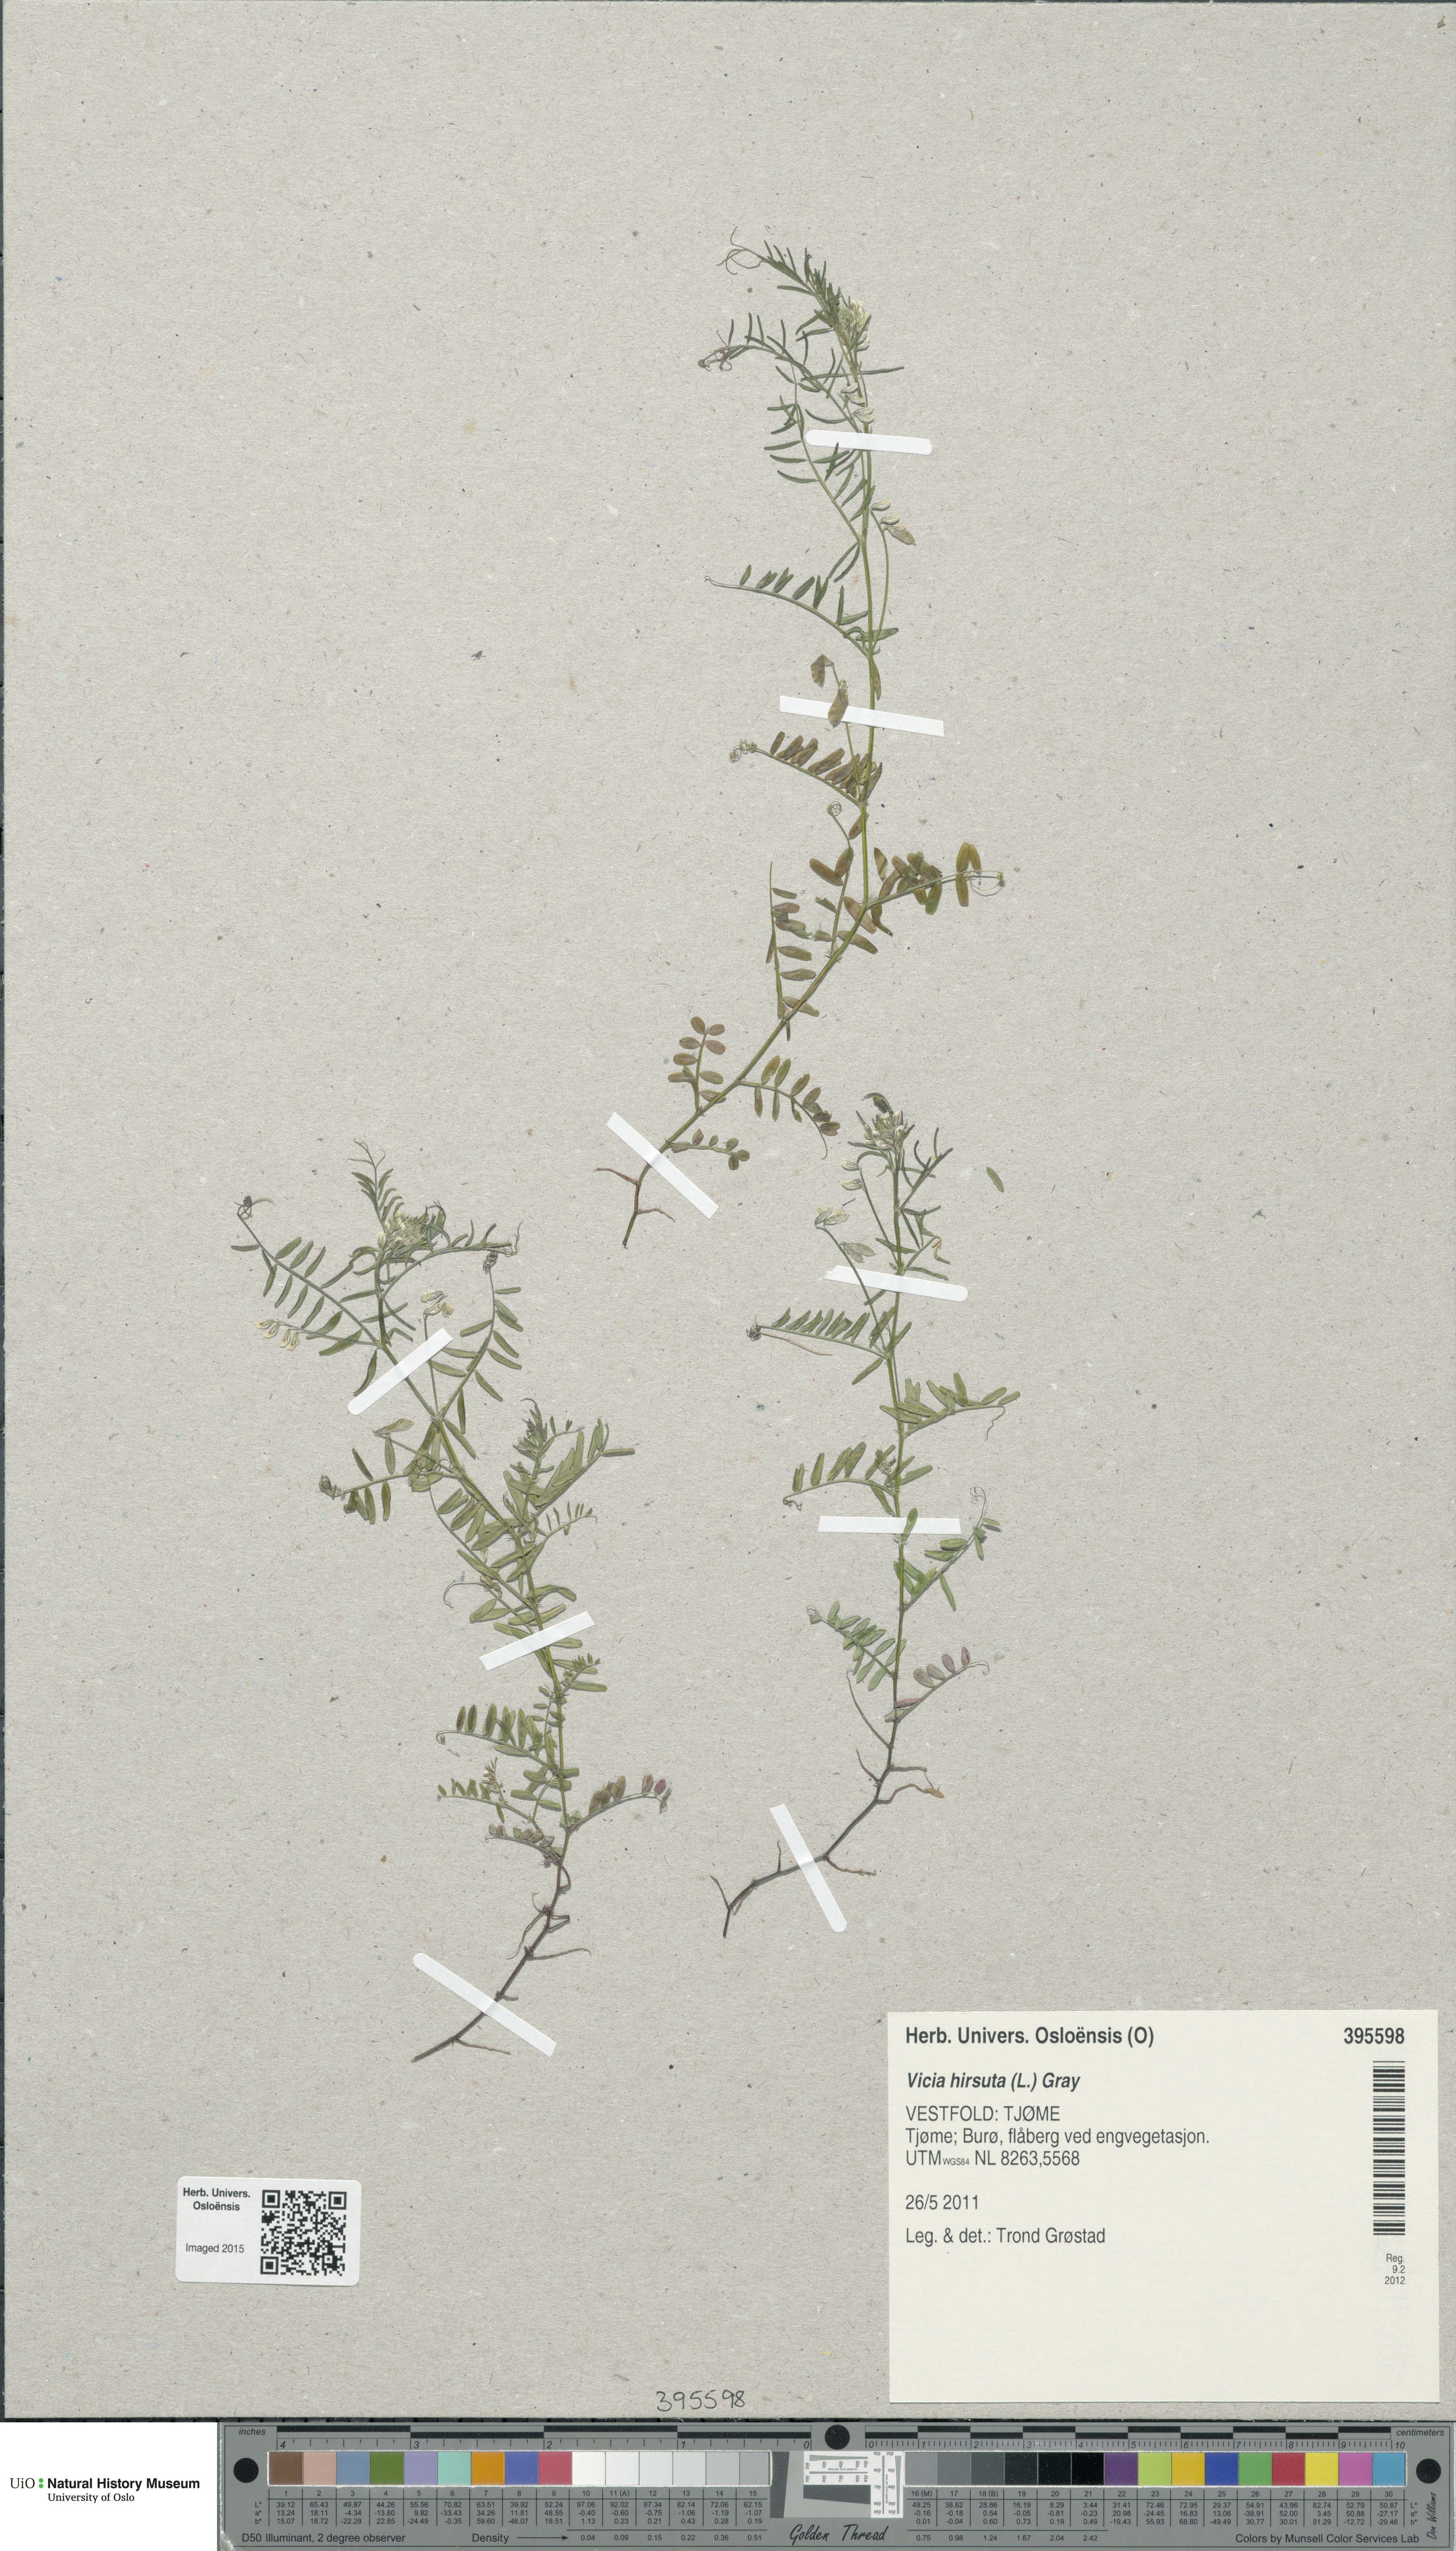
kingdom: Plantae
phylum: Tracheophyta
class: Magnoliopsida
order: Fabales
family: Fabaceae
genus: Vicia
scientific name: Vicia hirsuta
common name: Tiny vetch
